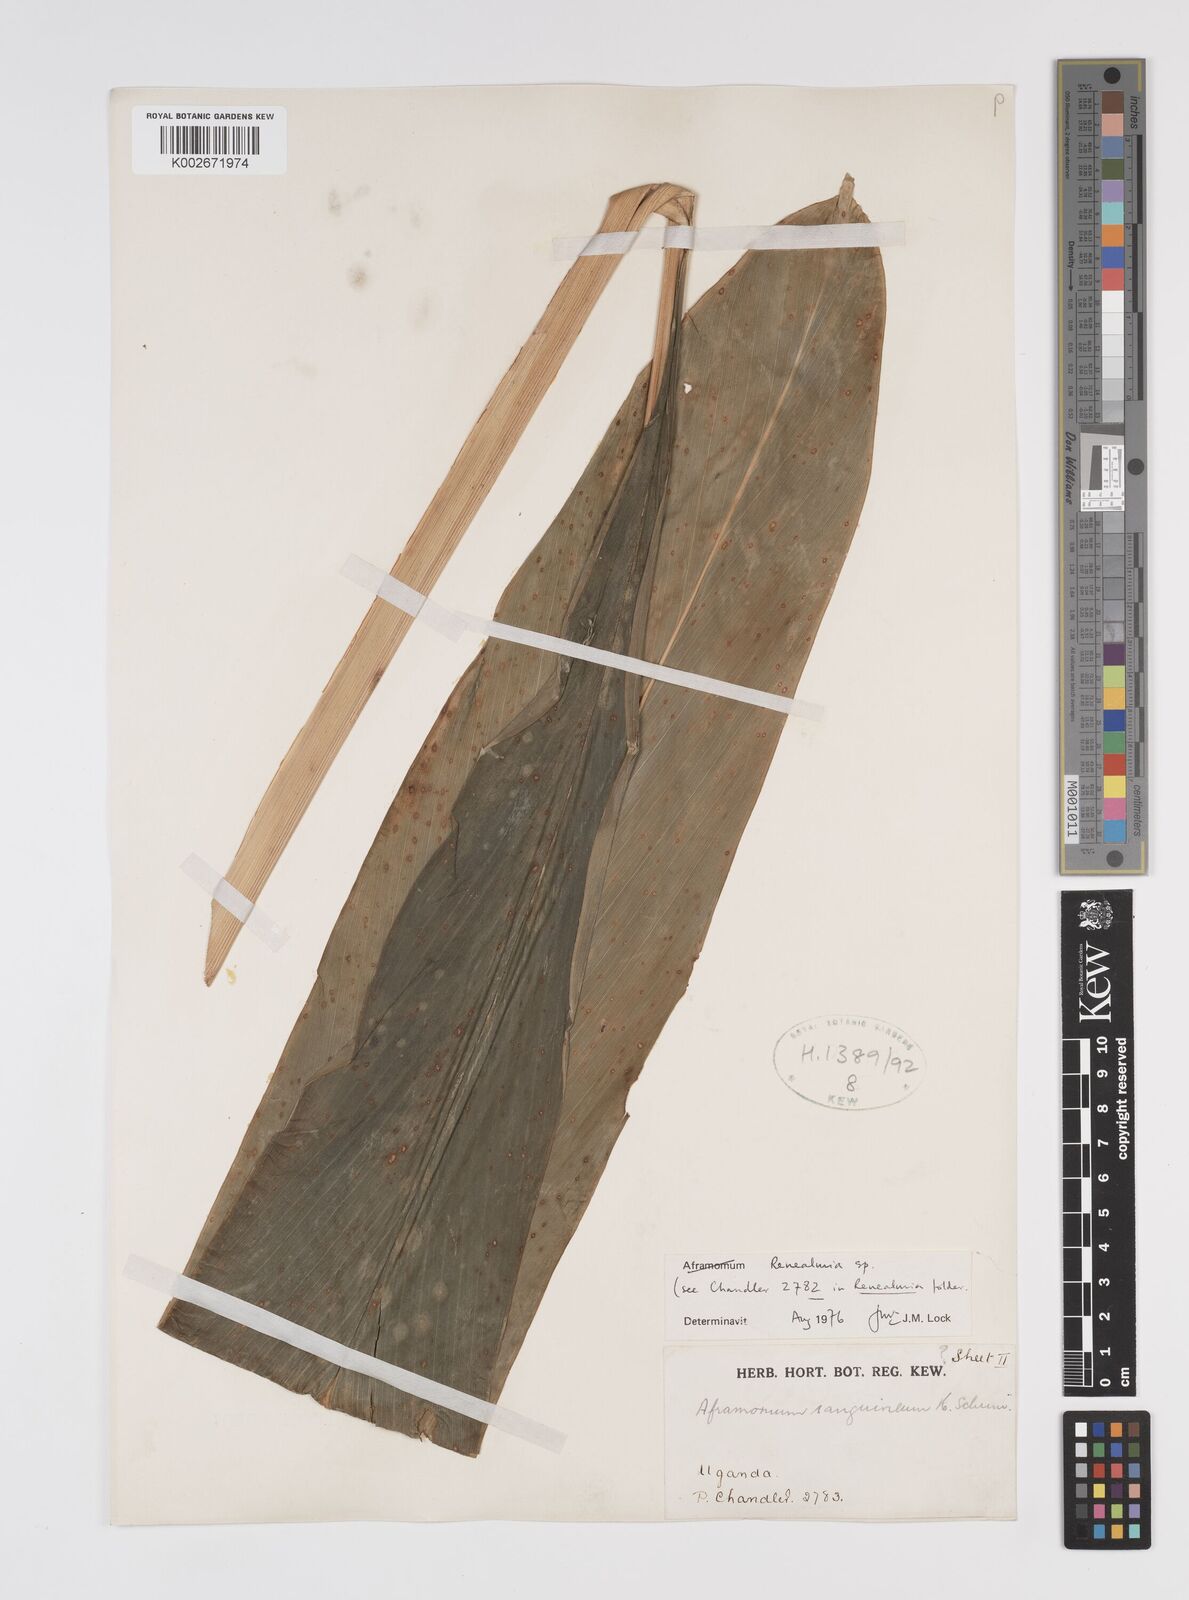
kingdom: Plantae
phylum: Tracheophyta
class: Liliopsida
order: Zingiberales
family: Zingiberaceae
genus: Renealmia
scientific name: Renealmia congolana
